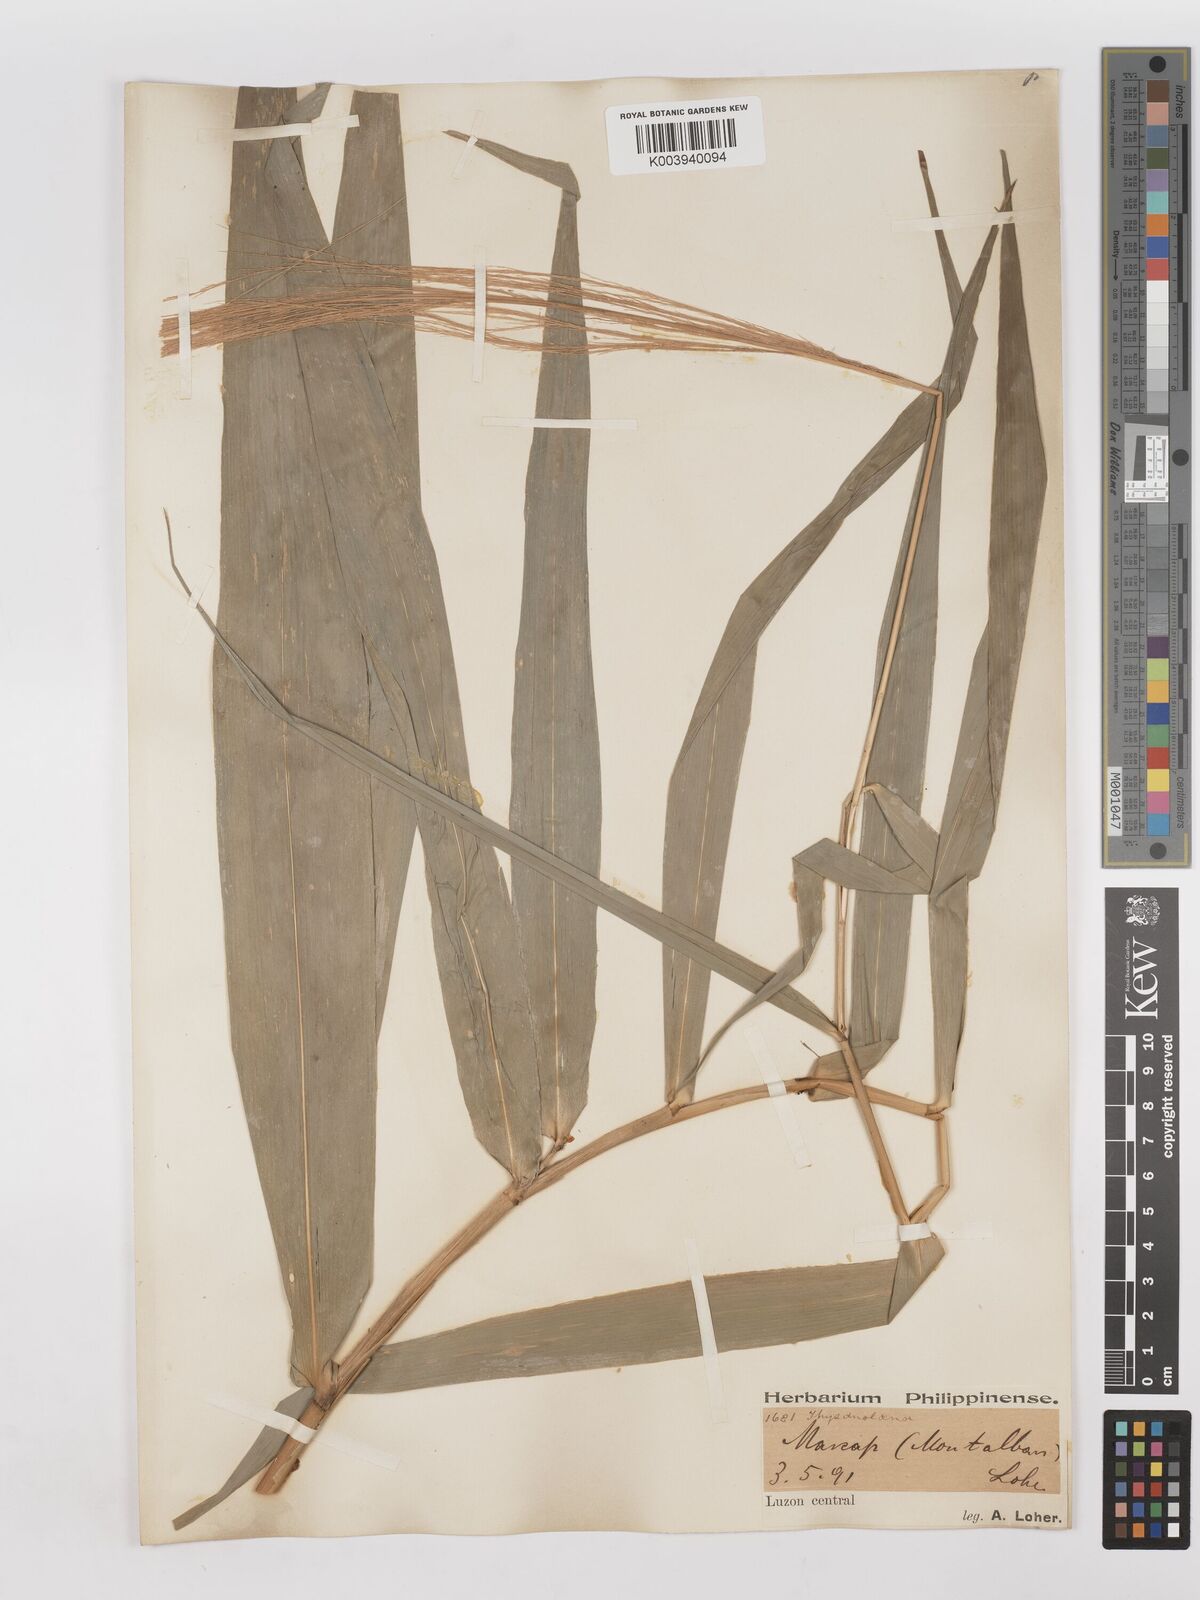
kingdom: Plantae
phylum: Tracheophyta
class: Liliopsida
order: Poales
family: Poaceae
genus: Thysanolaena
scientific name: Thysanolaena latifolia
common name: Tiger grass
